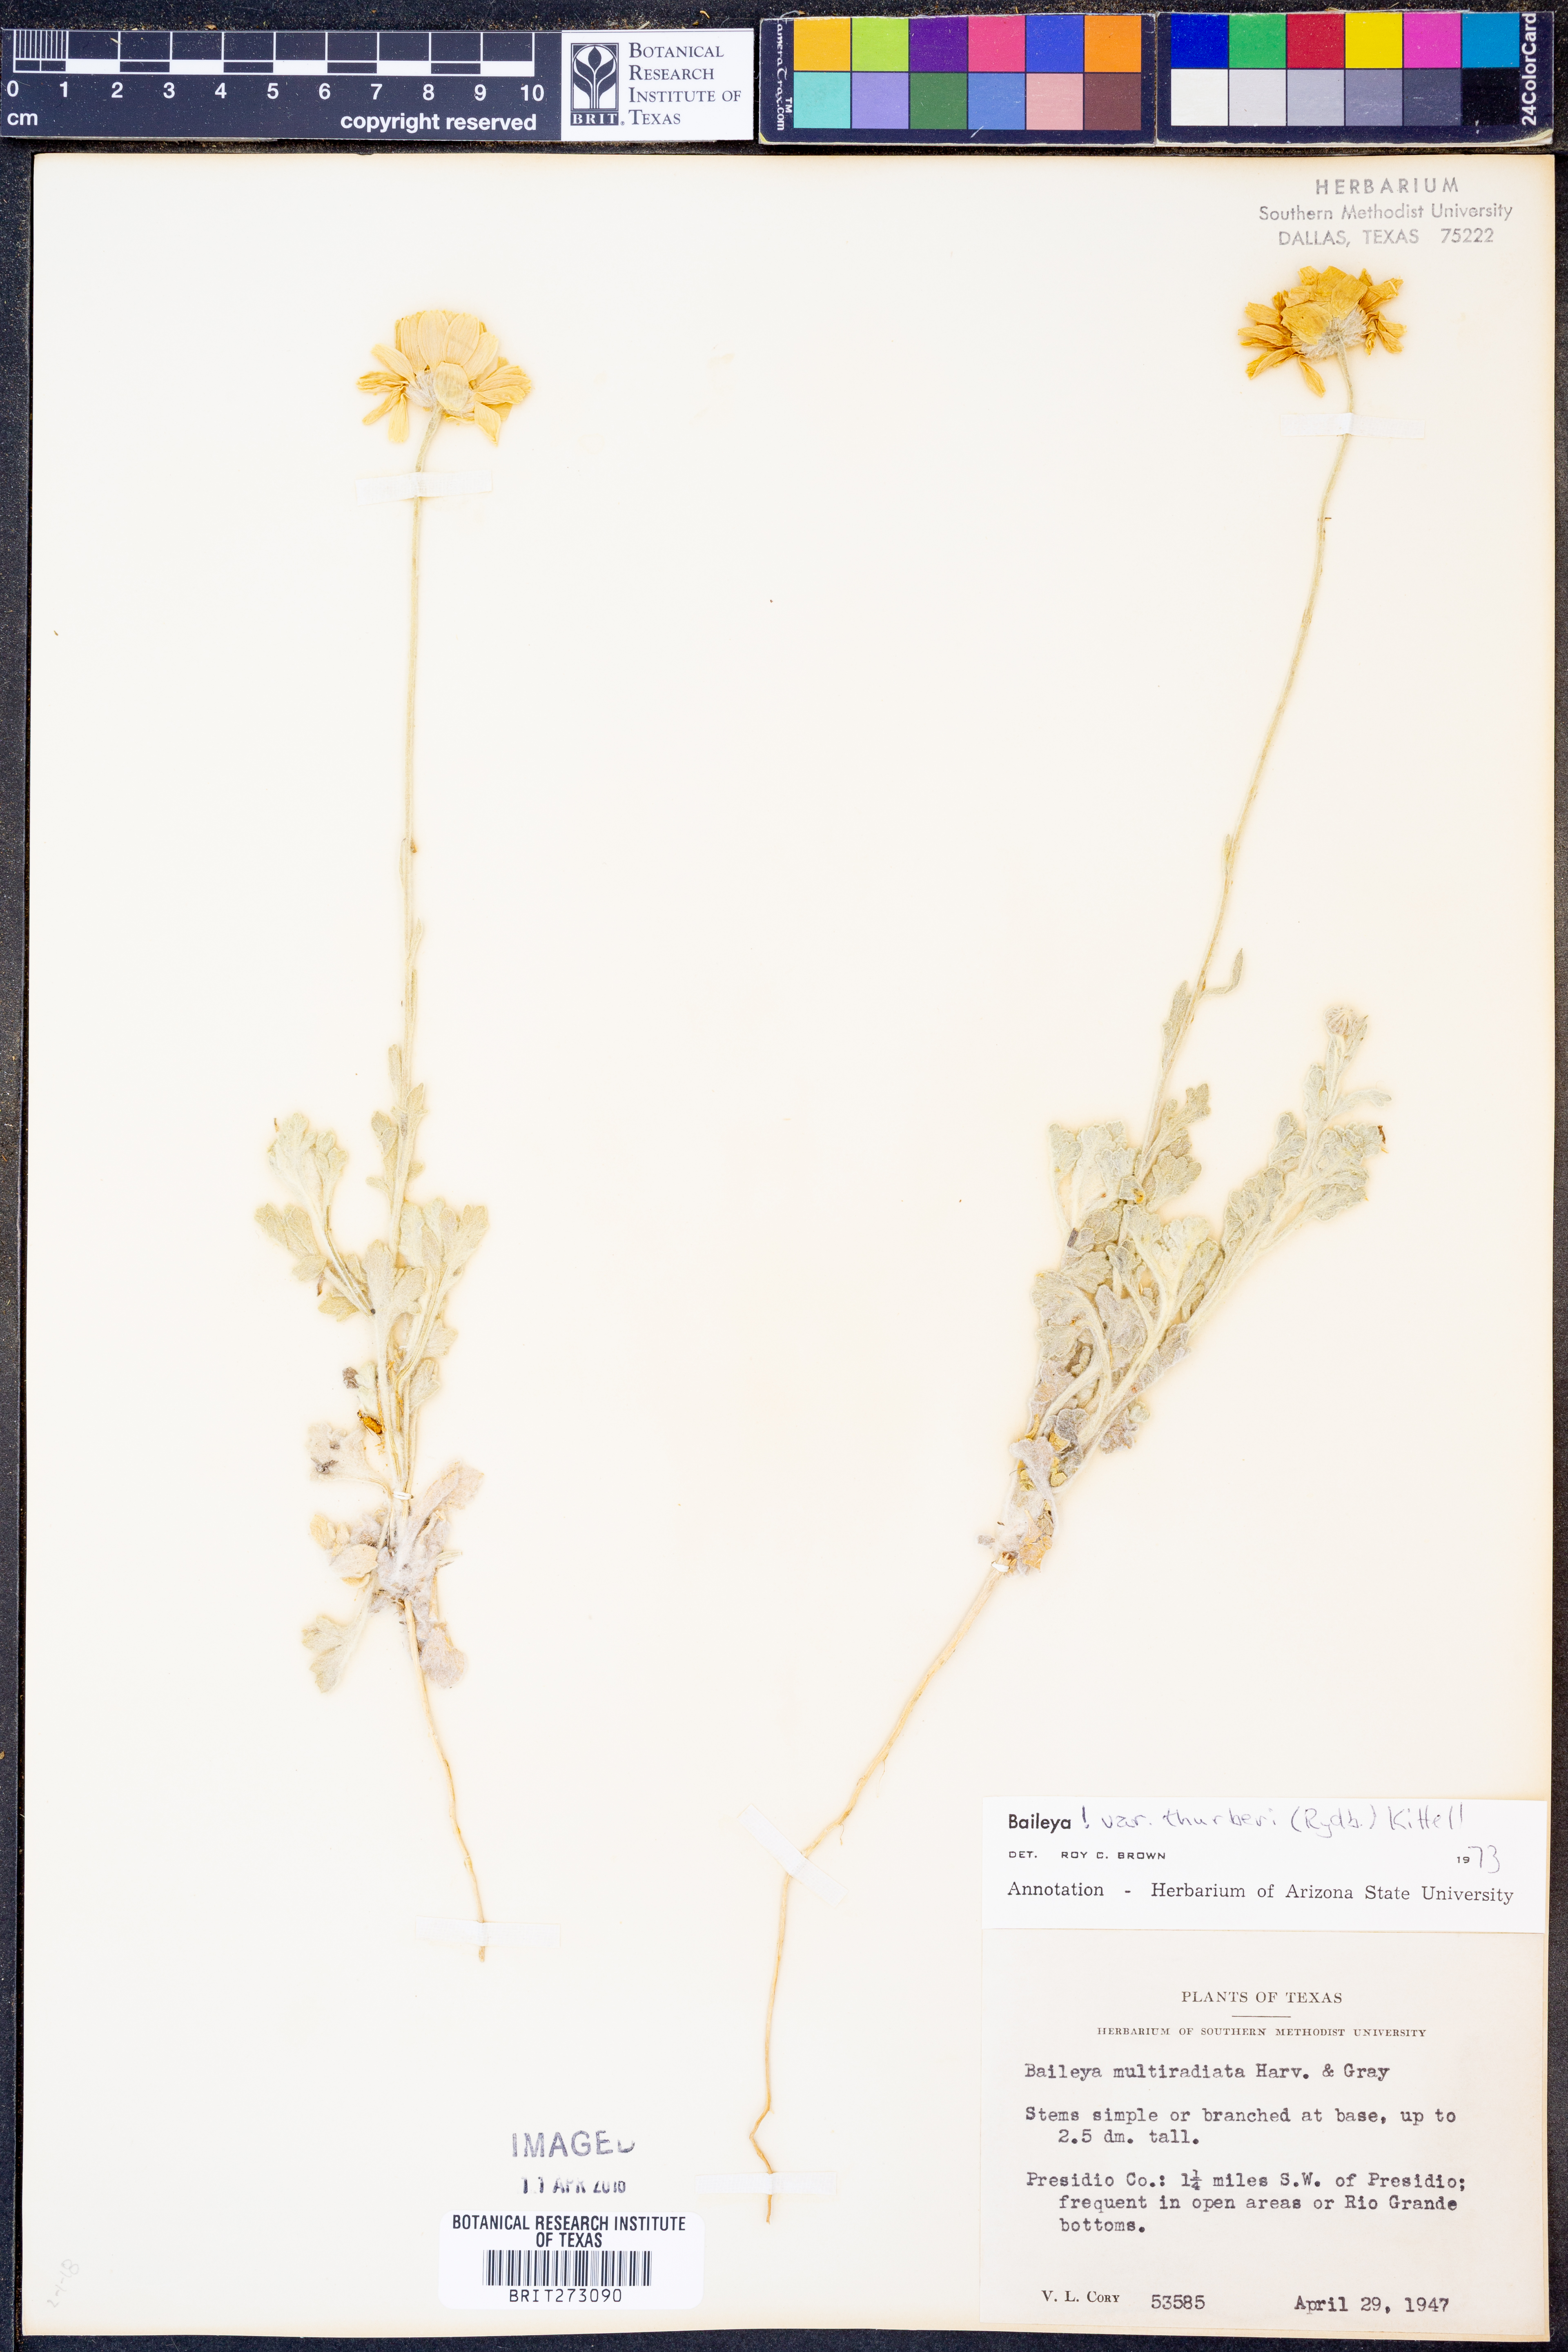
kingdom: Plantae
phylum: Tracheophyta
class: Magnoliopsida
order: Asterales
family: Asteraceae
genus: Baileya
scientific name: Baileya multiradiata
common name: Desert-marigold
